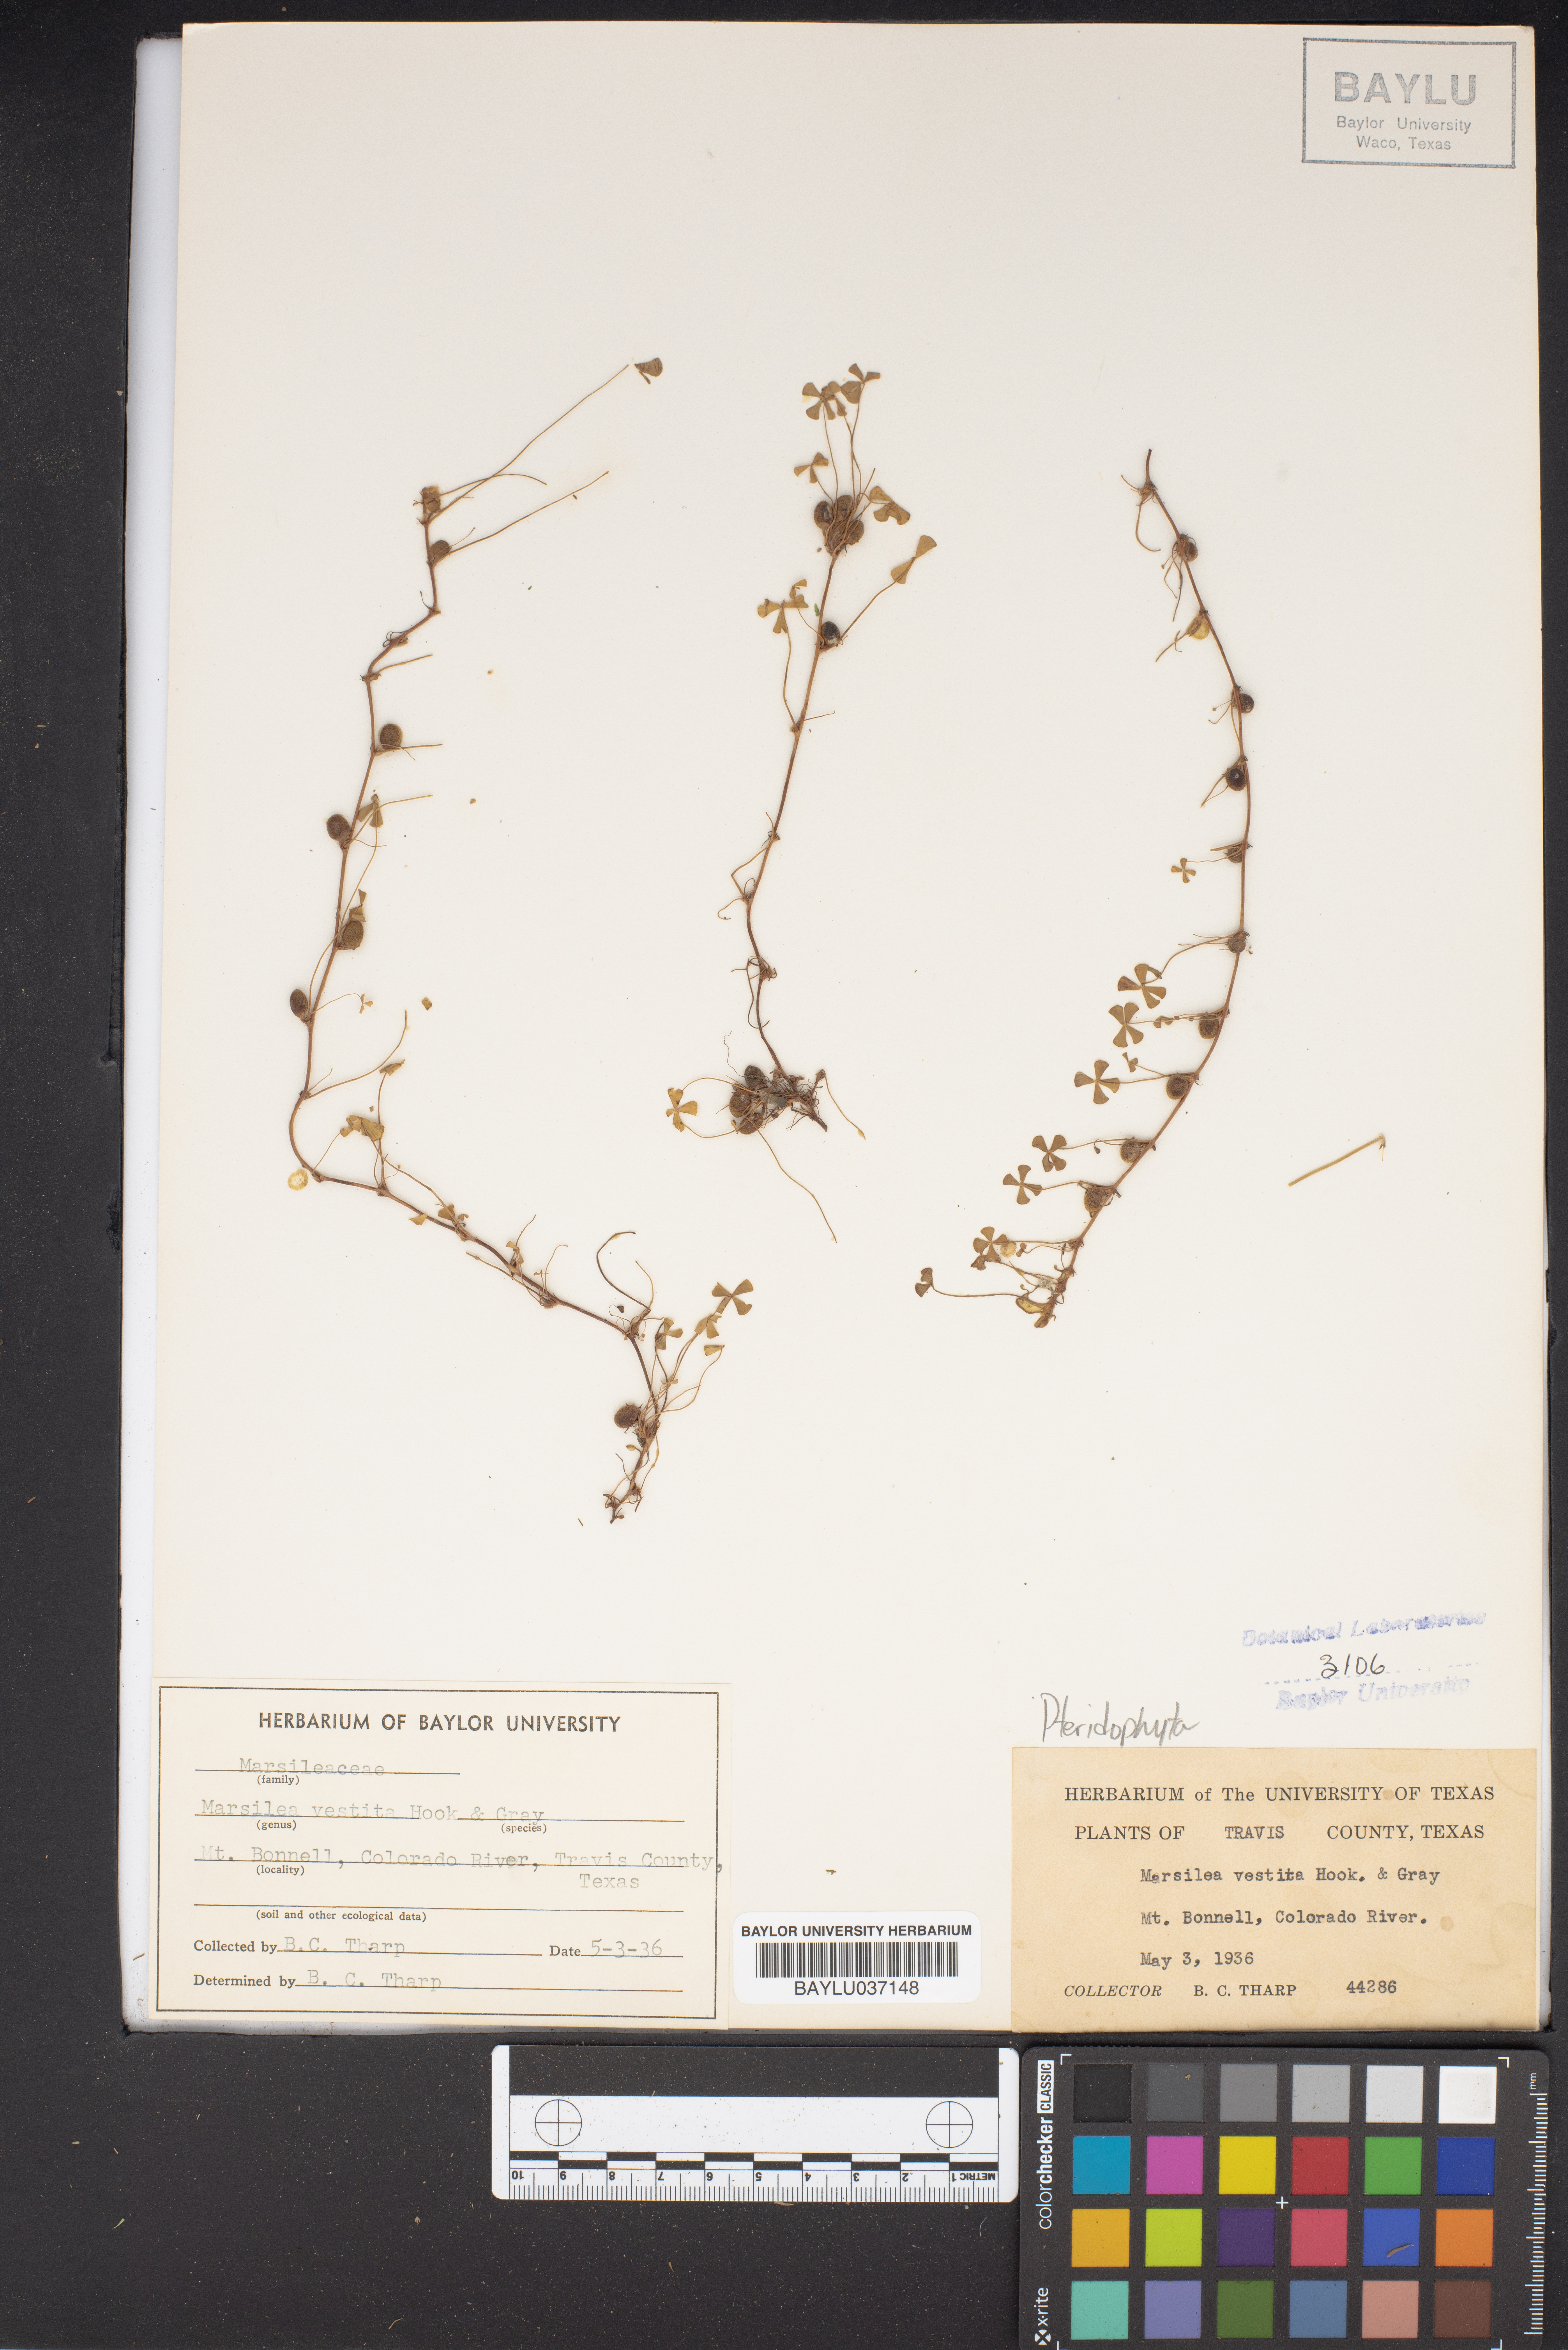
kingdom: Plantae
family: Pteridophyta
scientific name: Pteridophyta
